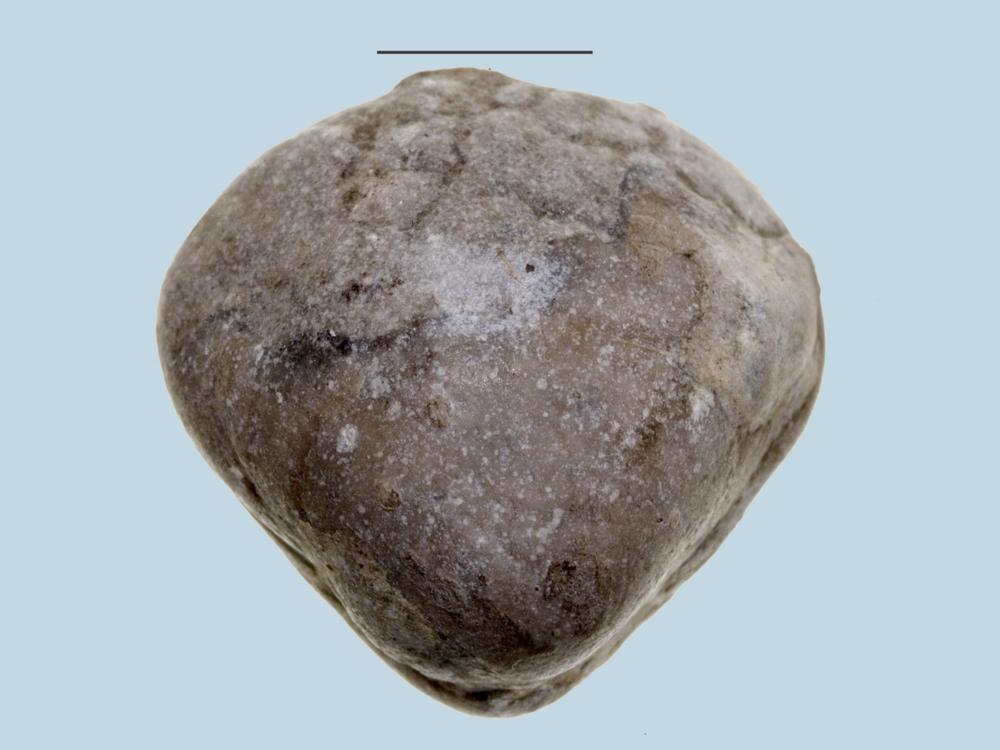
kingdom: Animalia
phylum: Brachiopoda
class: Rhynchonellata
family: Porambonitidae
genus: Porambonites
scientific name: Porambonites
